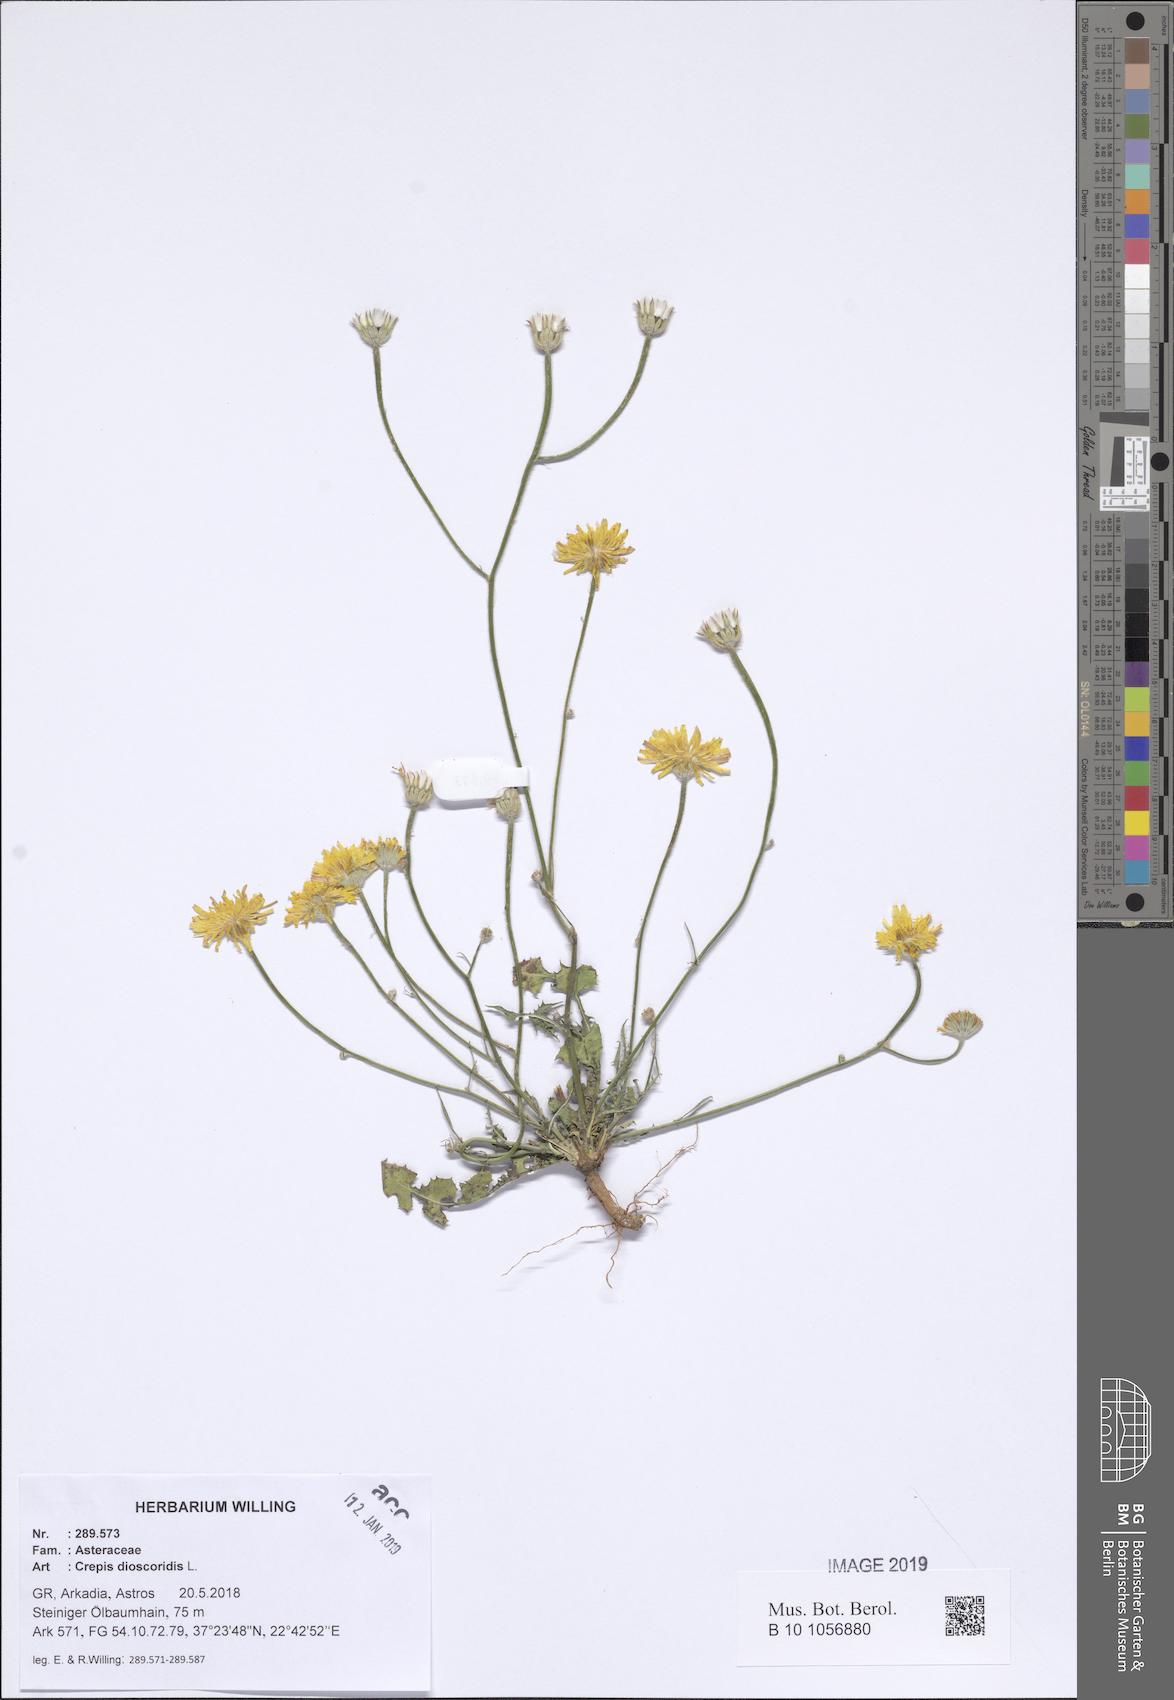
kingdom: Plantae
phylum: Tracheophyta
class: Magnoliopsida
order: Asterales
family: Asteraceae
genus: Crepis
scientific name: Crepis dioscoridis
